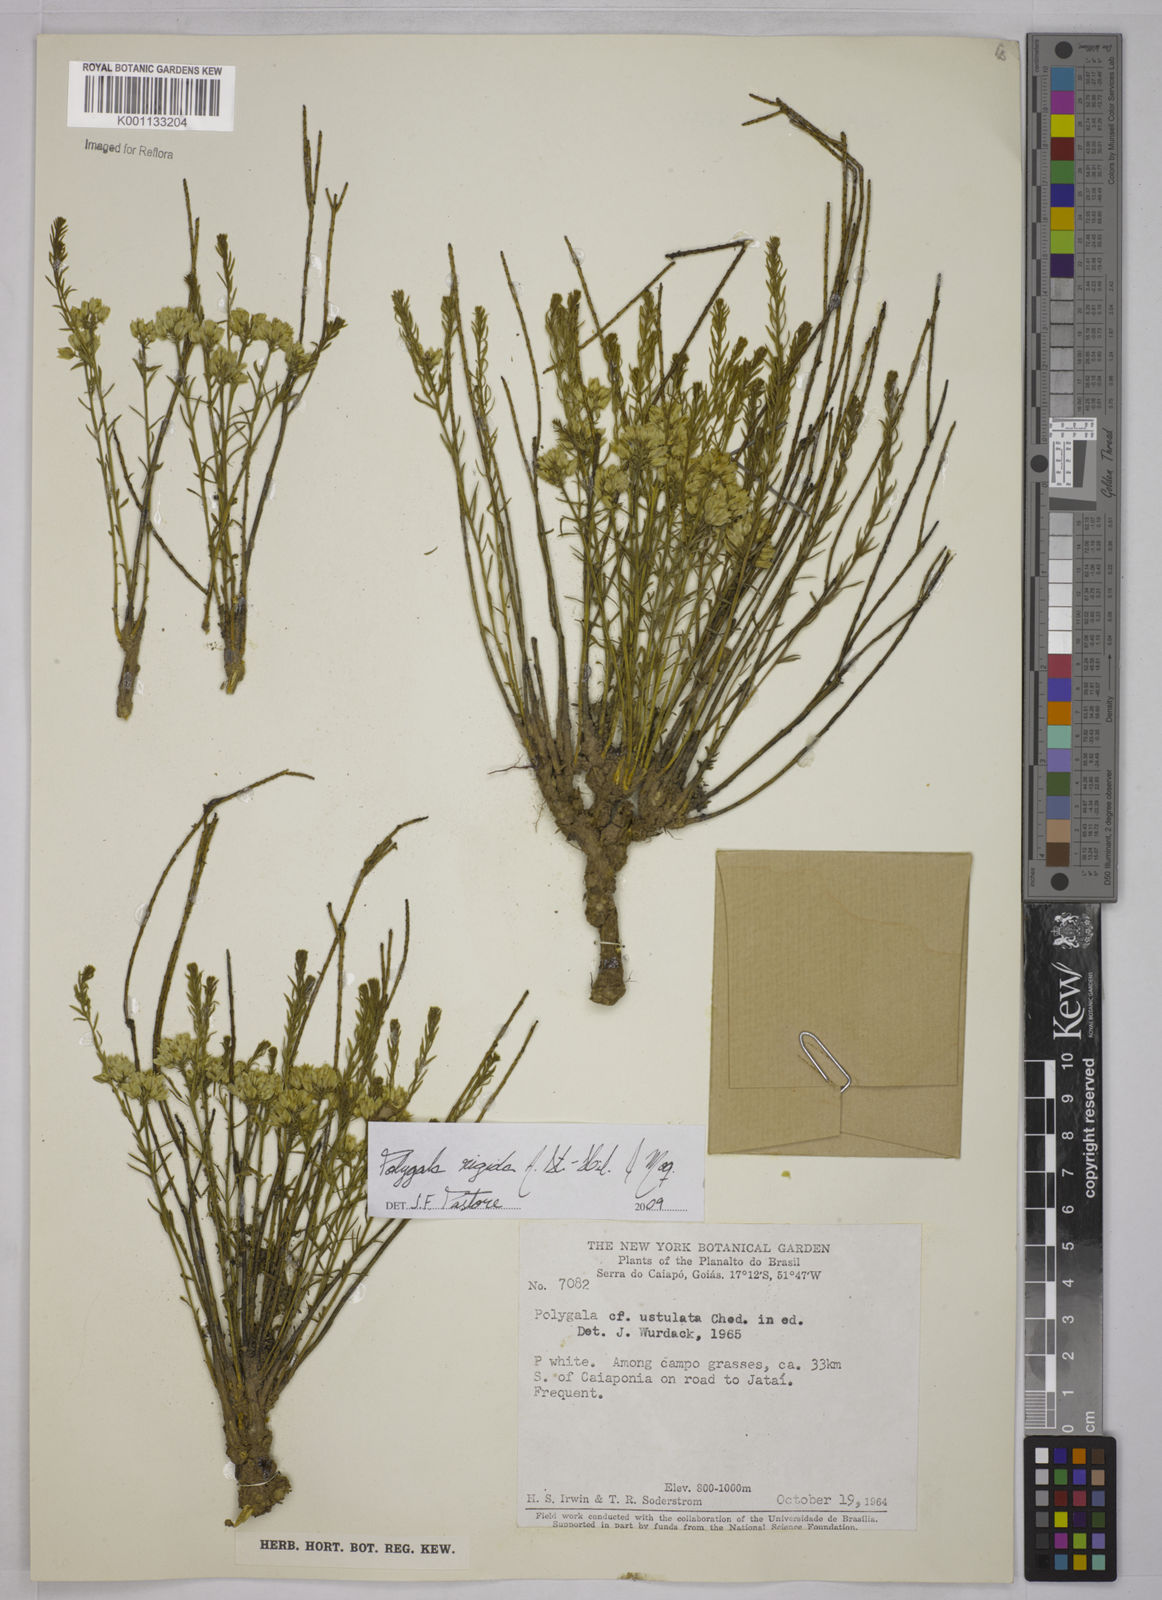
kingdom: Plantae
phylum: Tracheophyta
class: Magnoliopsida
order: Fabales
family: Polygalaceae
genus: Polygala
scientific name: Polygala rigida
